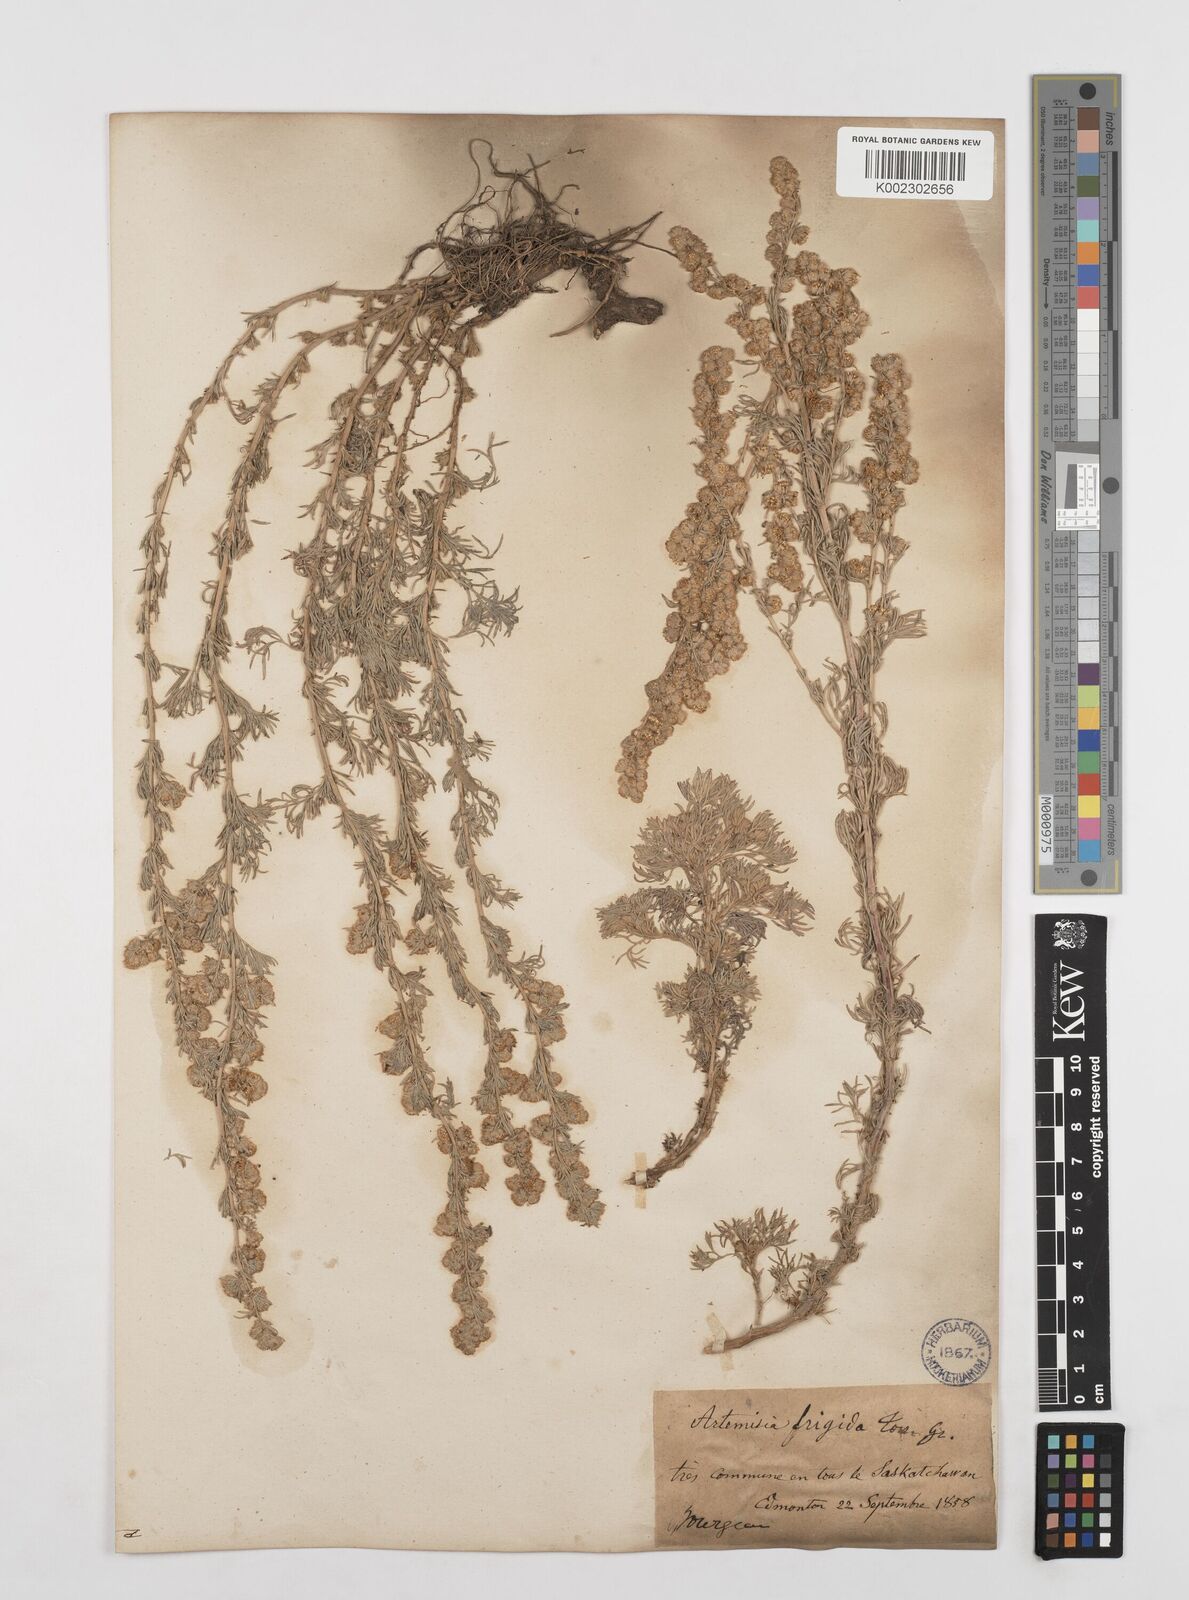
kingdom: Plantae
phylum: Tracheophyta
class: Magnoliopsida
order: Asterales
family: Asteraceae
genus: Artemisia
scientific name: Artemisia
